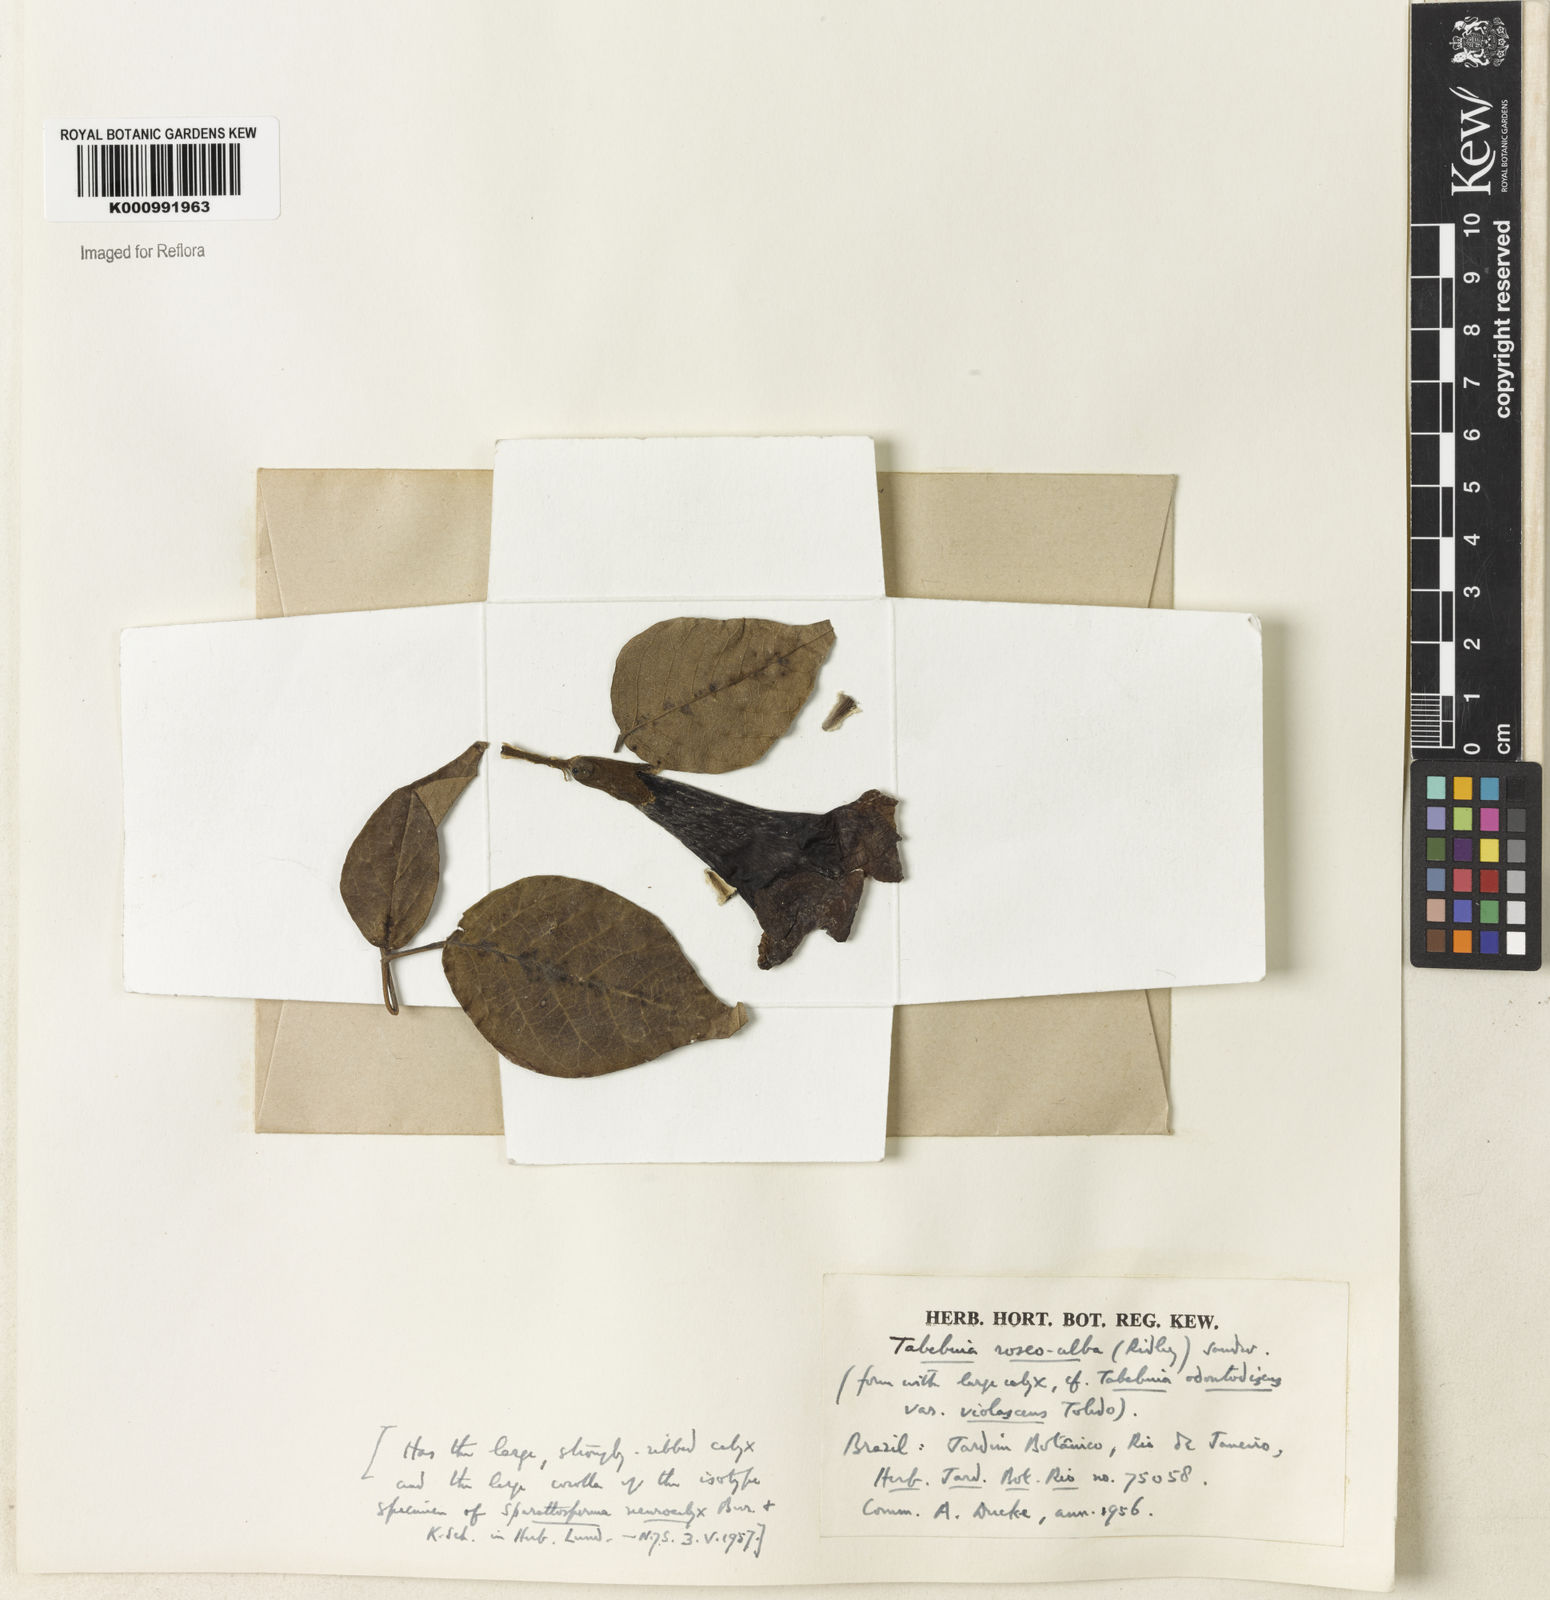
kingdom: Plantae
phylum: Tracheophyta
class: Magnoliopsida
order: Lamiales
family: Bignoniaceae
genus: Tabebuia
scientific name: Tabebuia roseoalba
